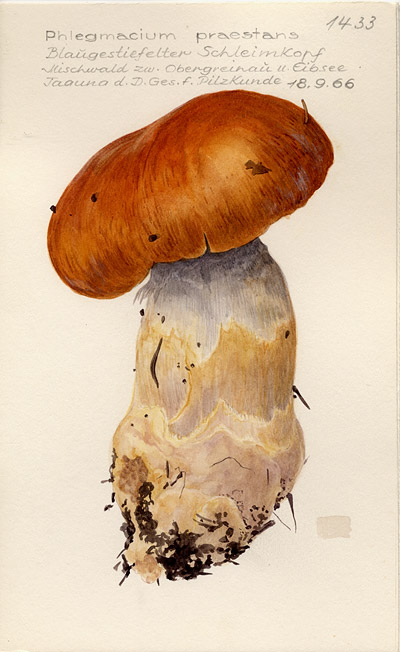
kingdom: Fungi
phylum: Basidiomycota
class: Agaricomycetes
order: Agaricales
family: Cortinariaceae
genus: Cortinarius
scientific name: Cortinarius praestans
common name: Goliath webcap
